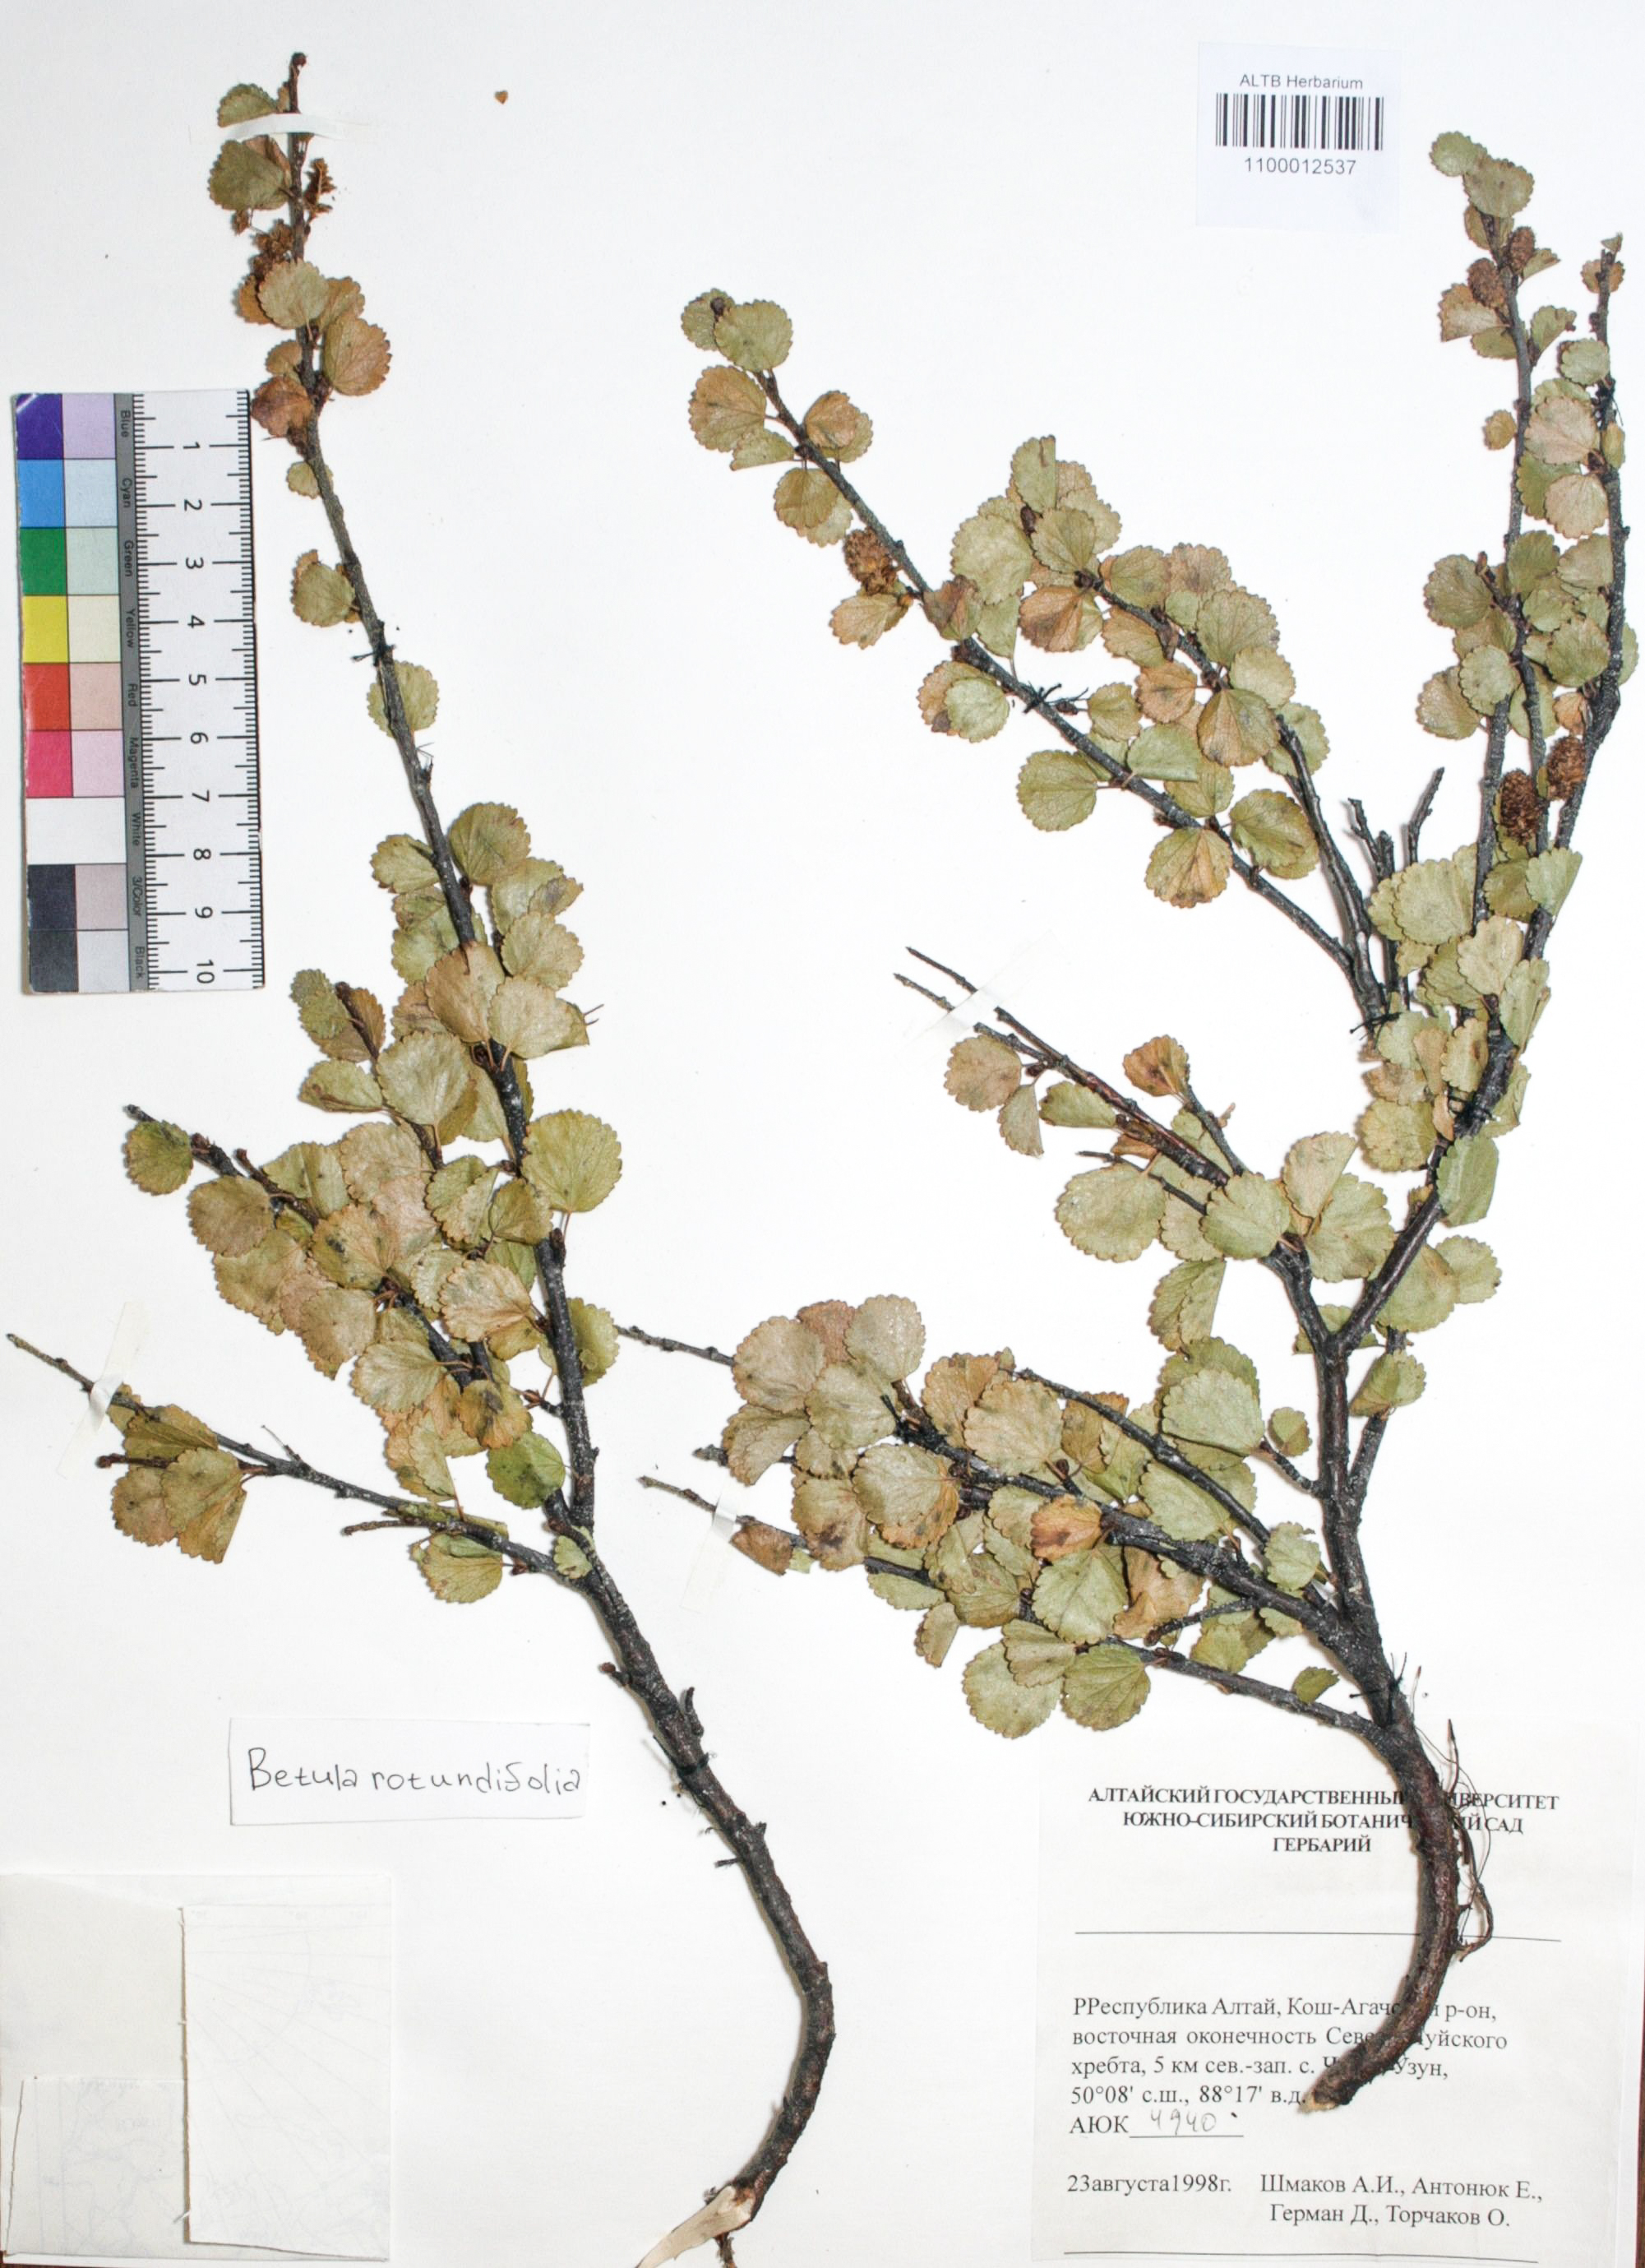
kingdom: Plantae
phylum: Tracheophyta
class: Magnoliopsida
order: Fagales
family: Betulaceae
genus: Betula
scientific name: Betula glandulosa
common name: Dwarf birch
